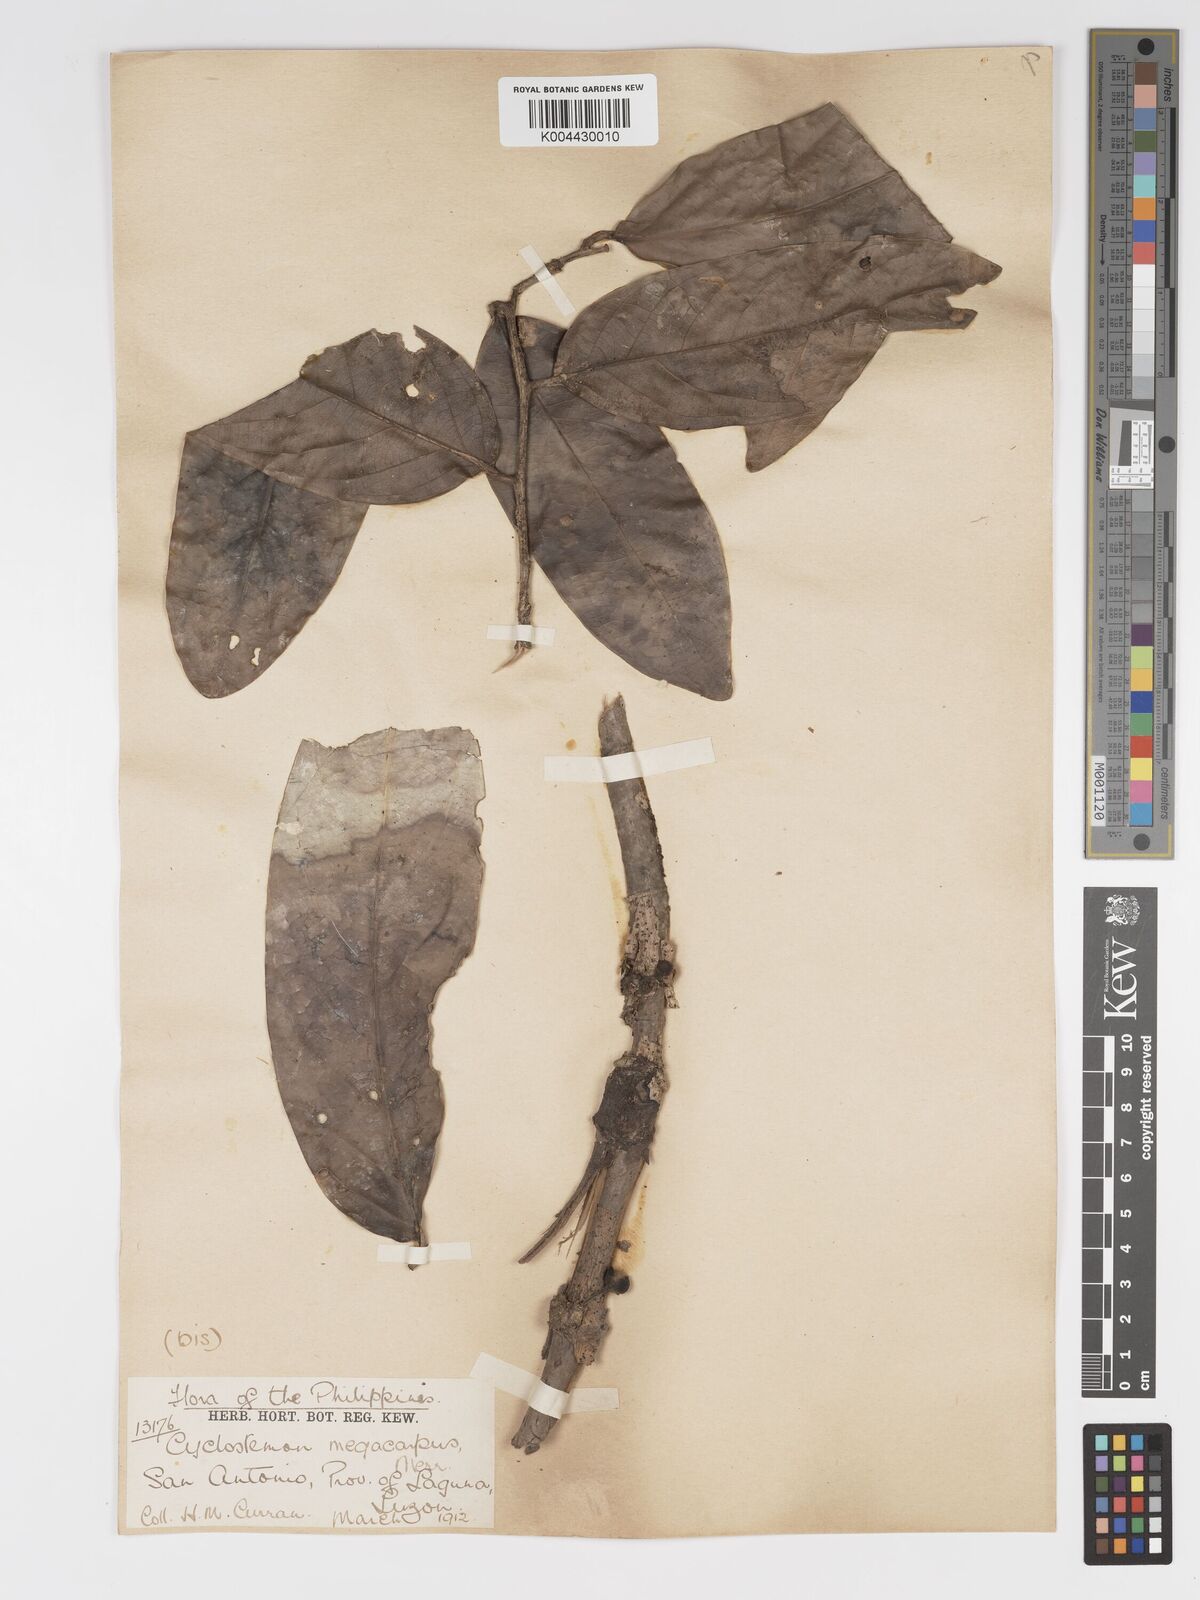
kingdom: Plantae
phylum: Tracheophyta
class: Magnoliopsida
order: Malpighiales
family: Putranjivaceae
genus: Drypetes
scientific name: Drypetes grandifolia
